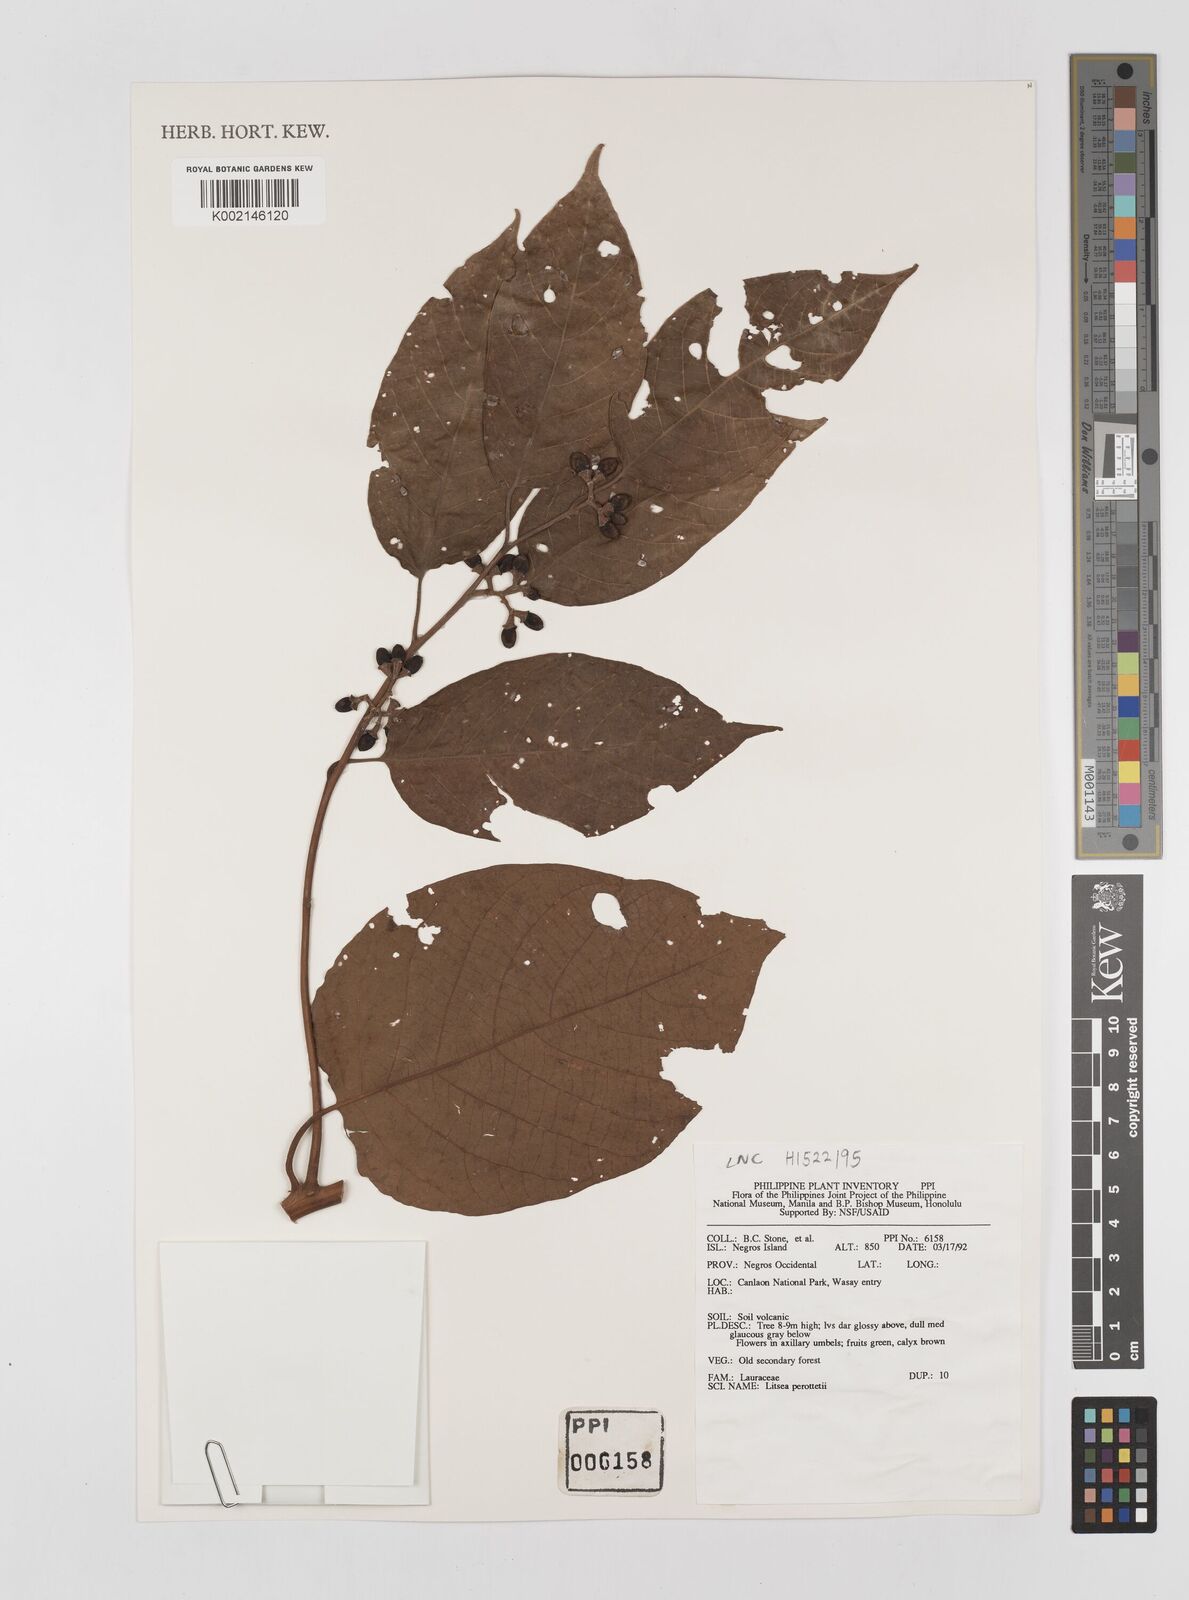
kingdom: Plantae
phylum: Tracheophyta
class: Magnoliopsida
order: Laurales
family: Lauraceae
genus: Litsea
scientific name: Litsea cordata
